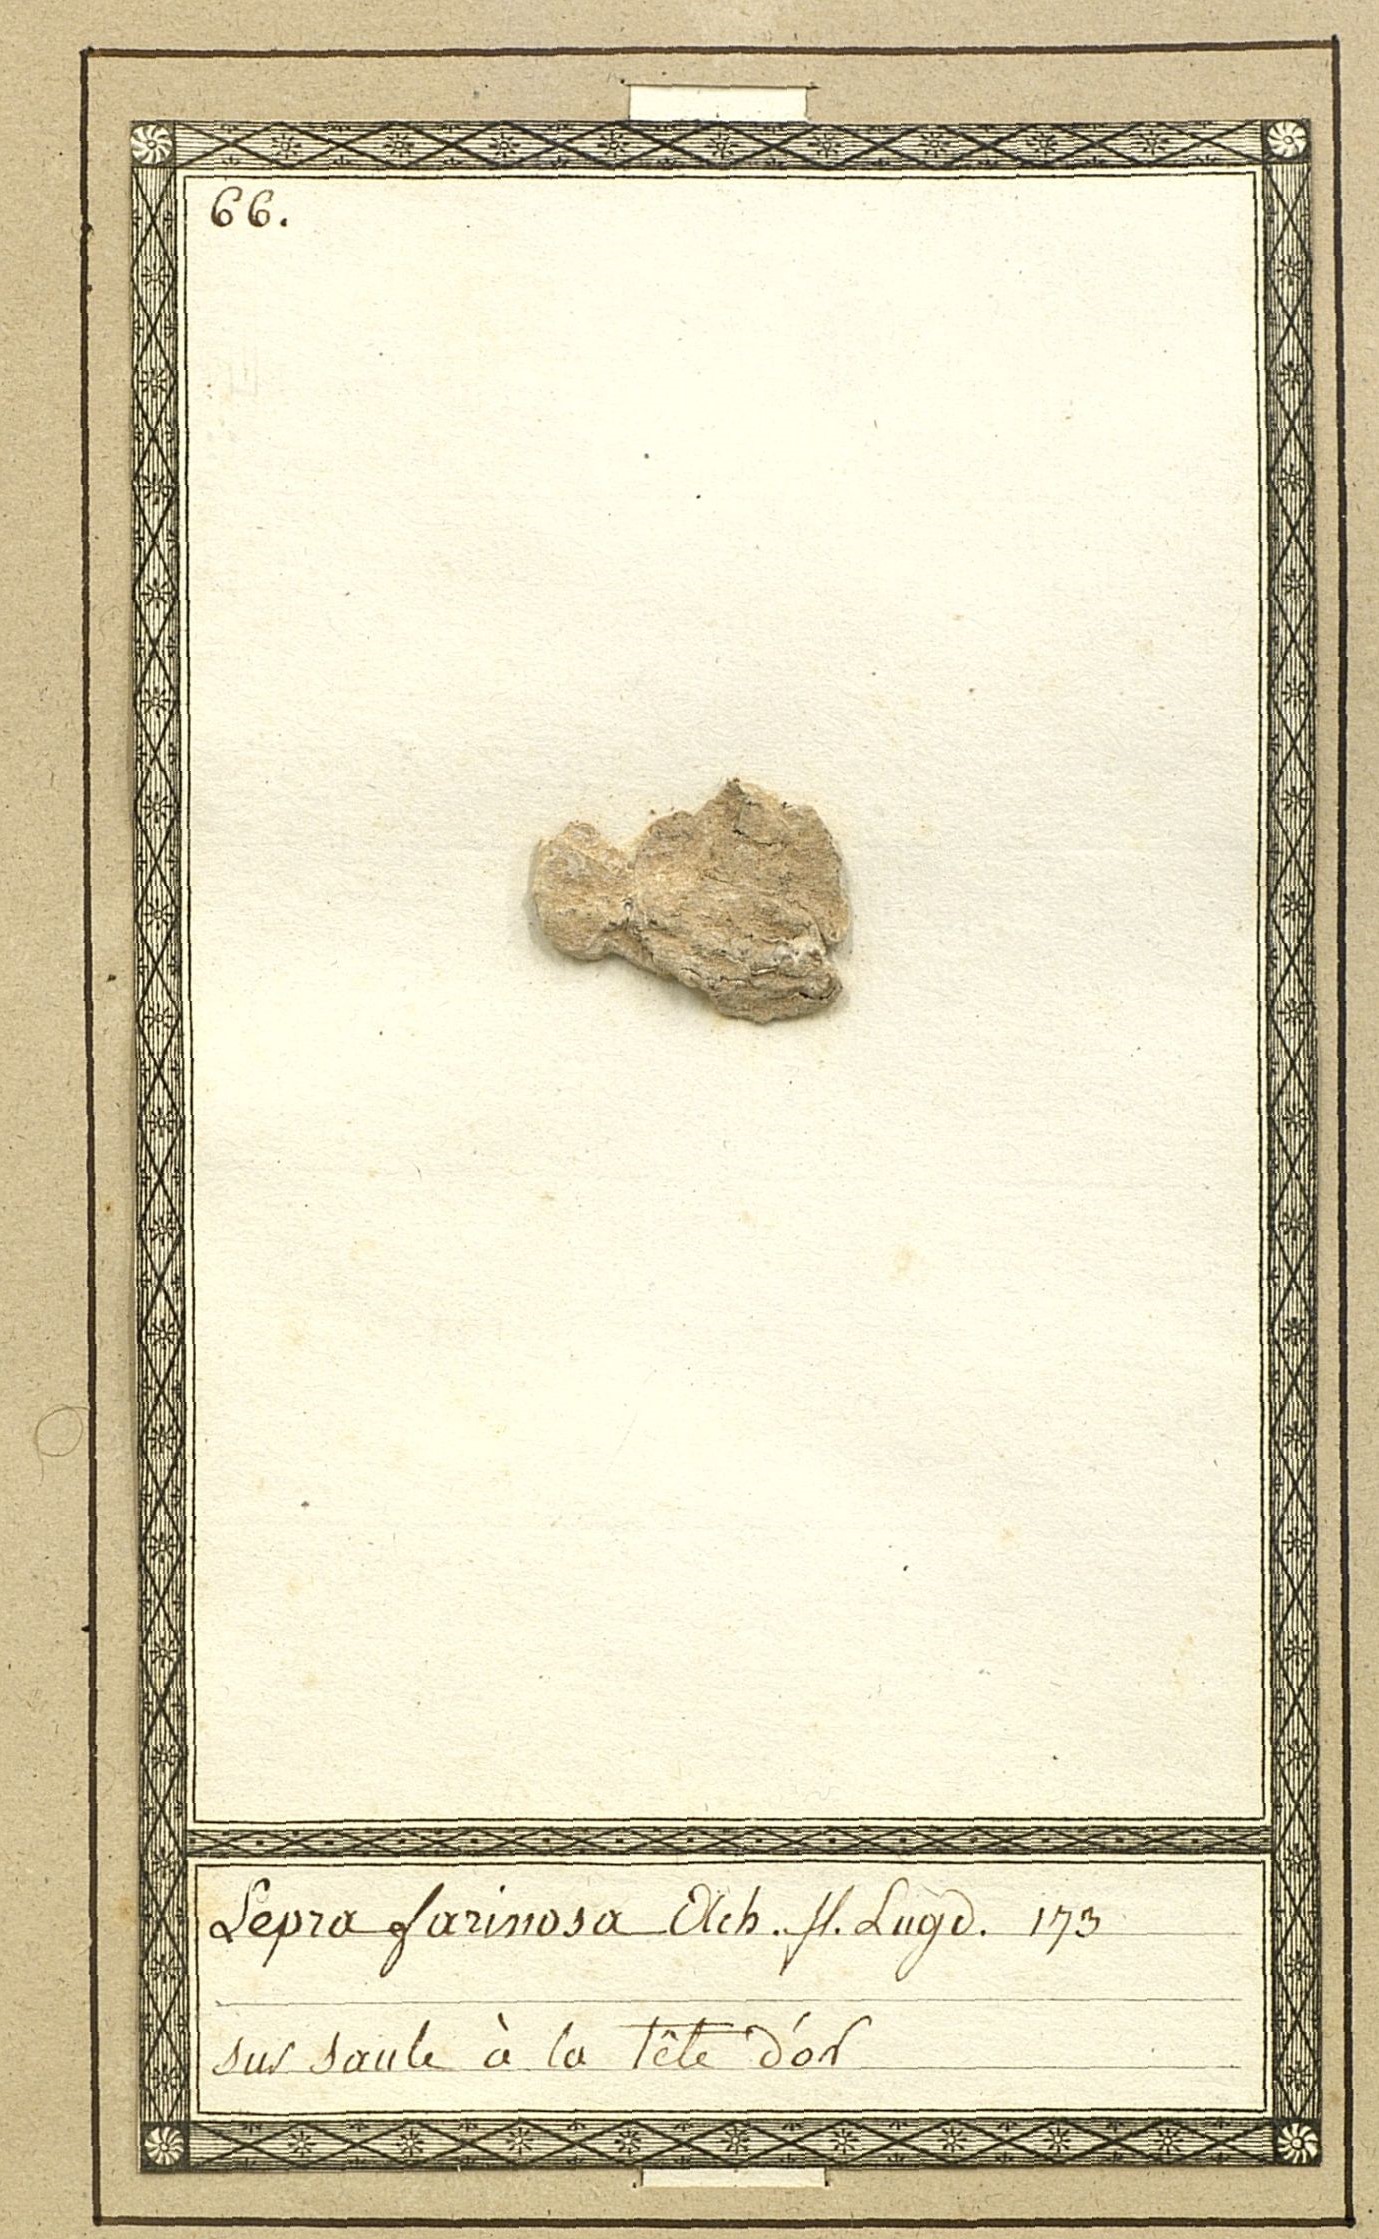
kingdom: Fungi
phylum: Ascomycota
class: Lecanoromycetes
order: Ostropales
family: Phlyctidaceae
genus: Phlyctis
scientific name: Phlyctis argena
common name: Whitewash lichen
